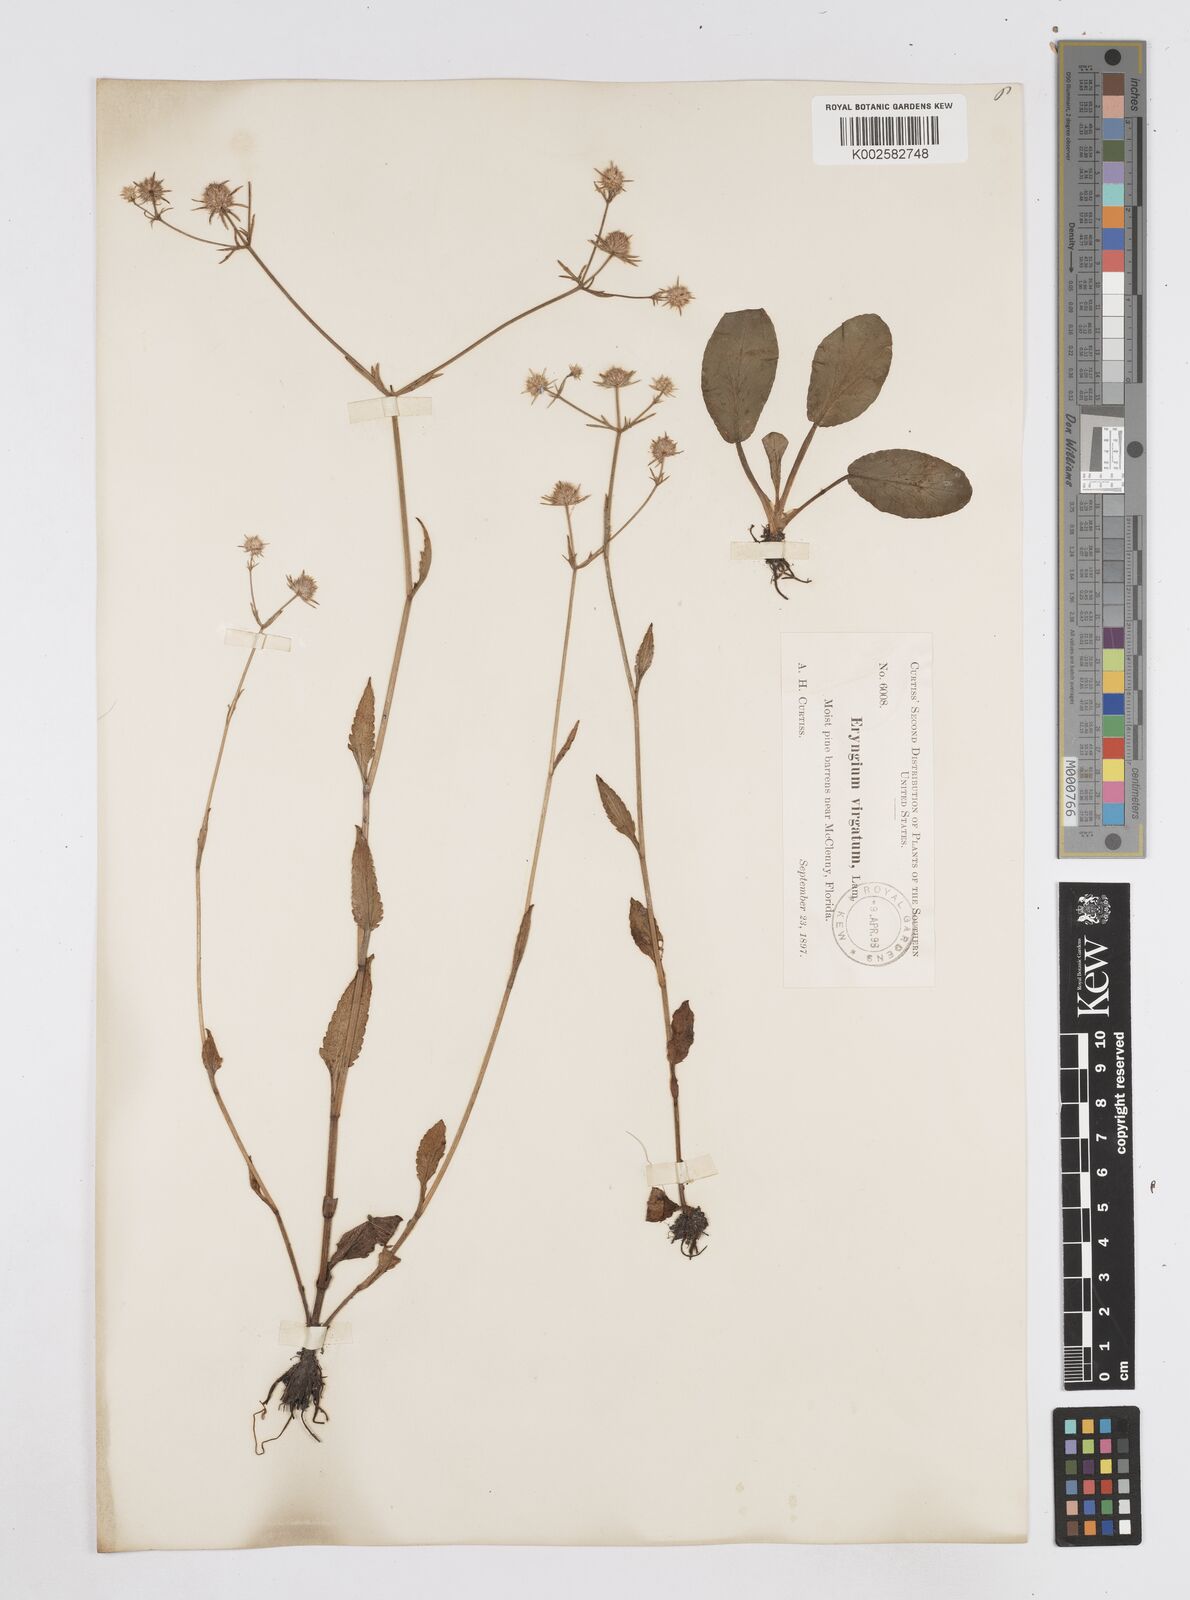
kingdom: Plantae
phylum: Tracheophyta
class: Magnoliopsida
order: Apiales
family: Apiaceae
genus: Eryngium
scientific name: Eryngium integrifolium
